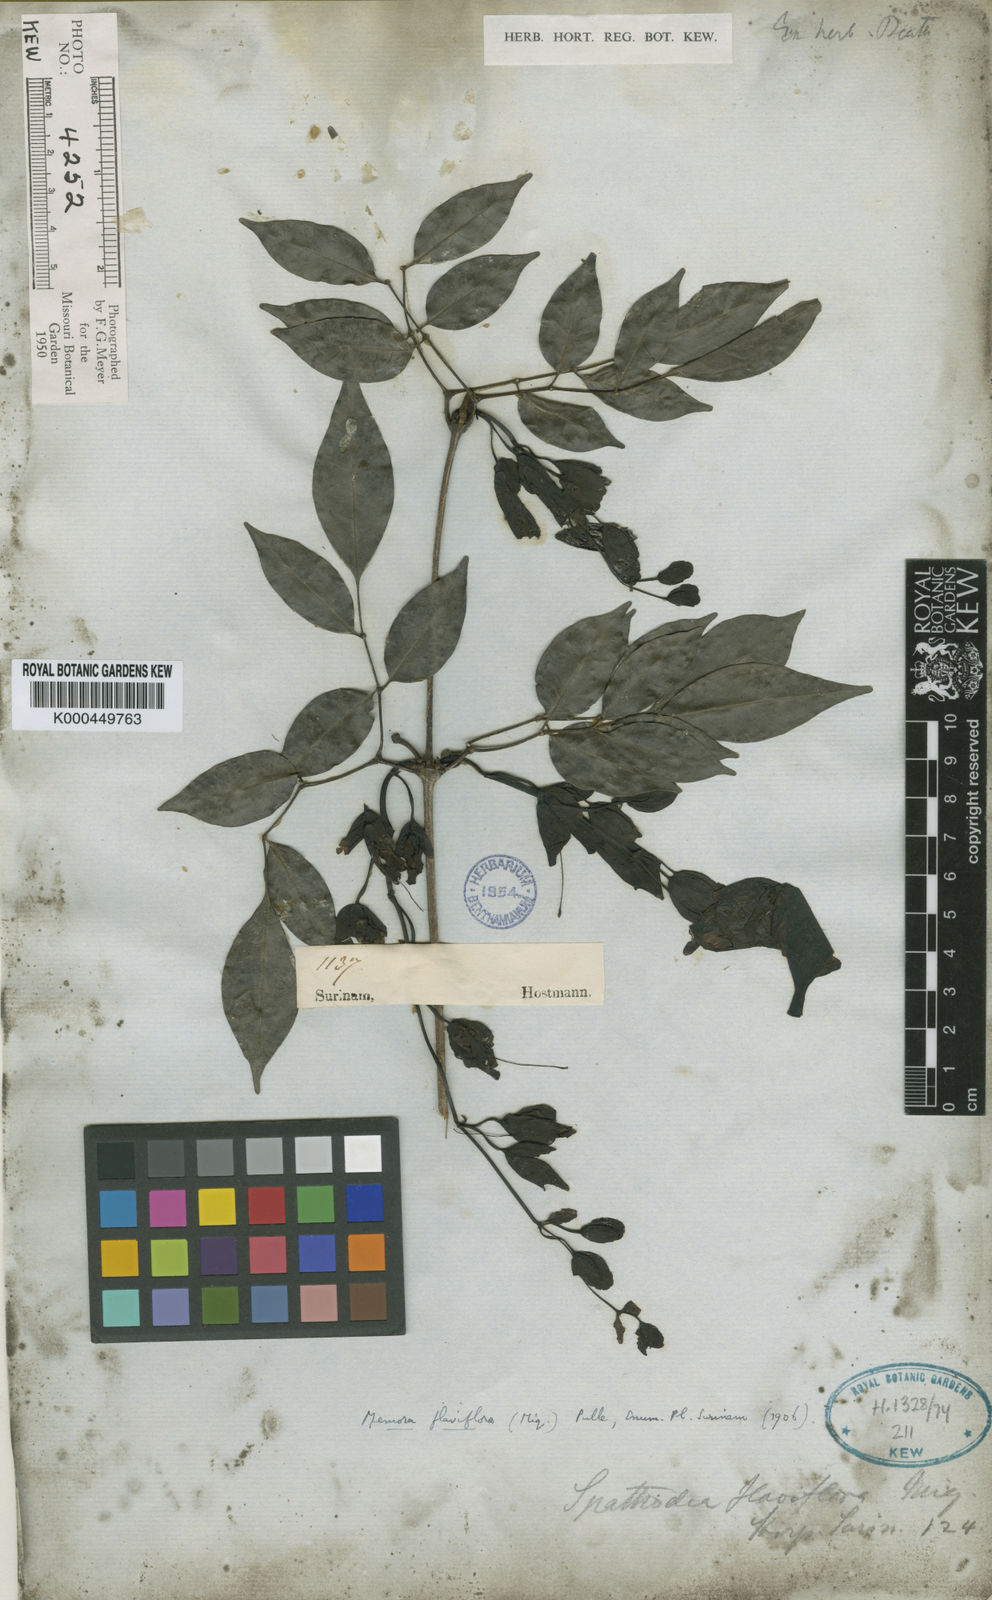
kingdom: Plantae
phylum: Tracheophyta
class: Magnoliopsida
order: Lamiales
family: Bignoniaceae
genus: Adenocalymma
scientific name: Adenocalymma flaviflorum
